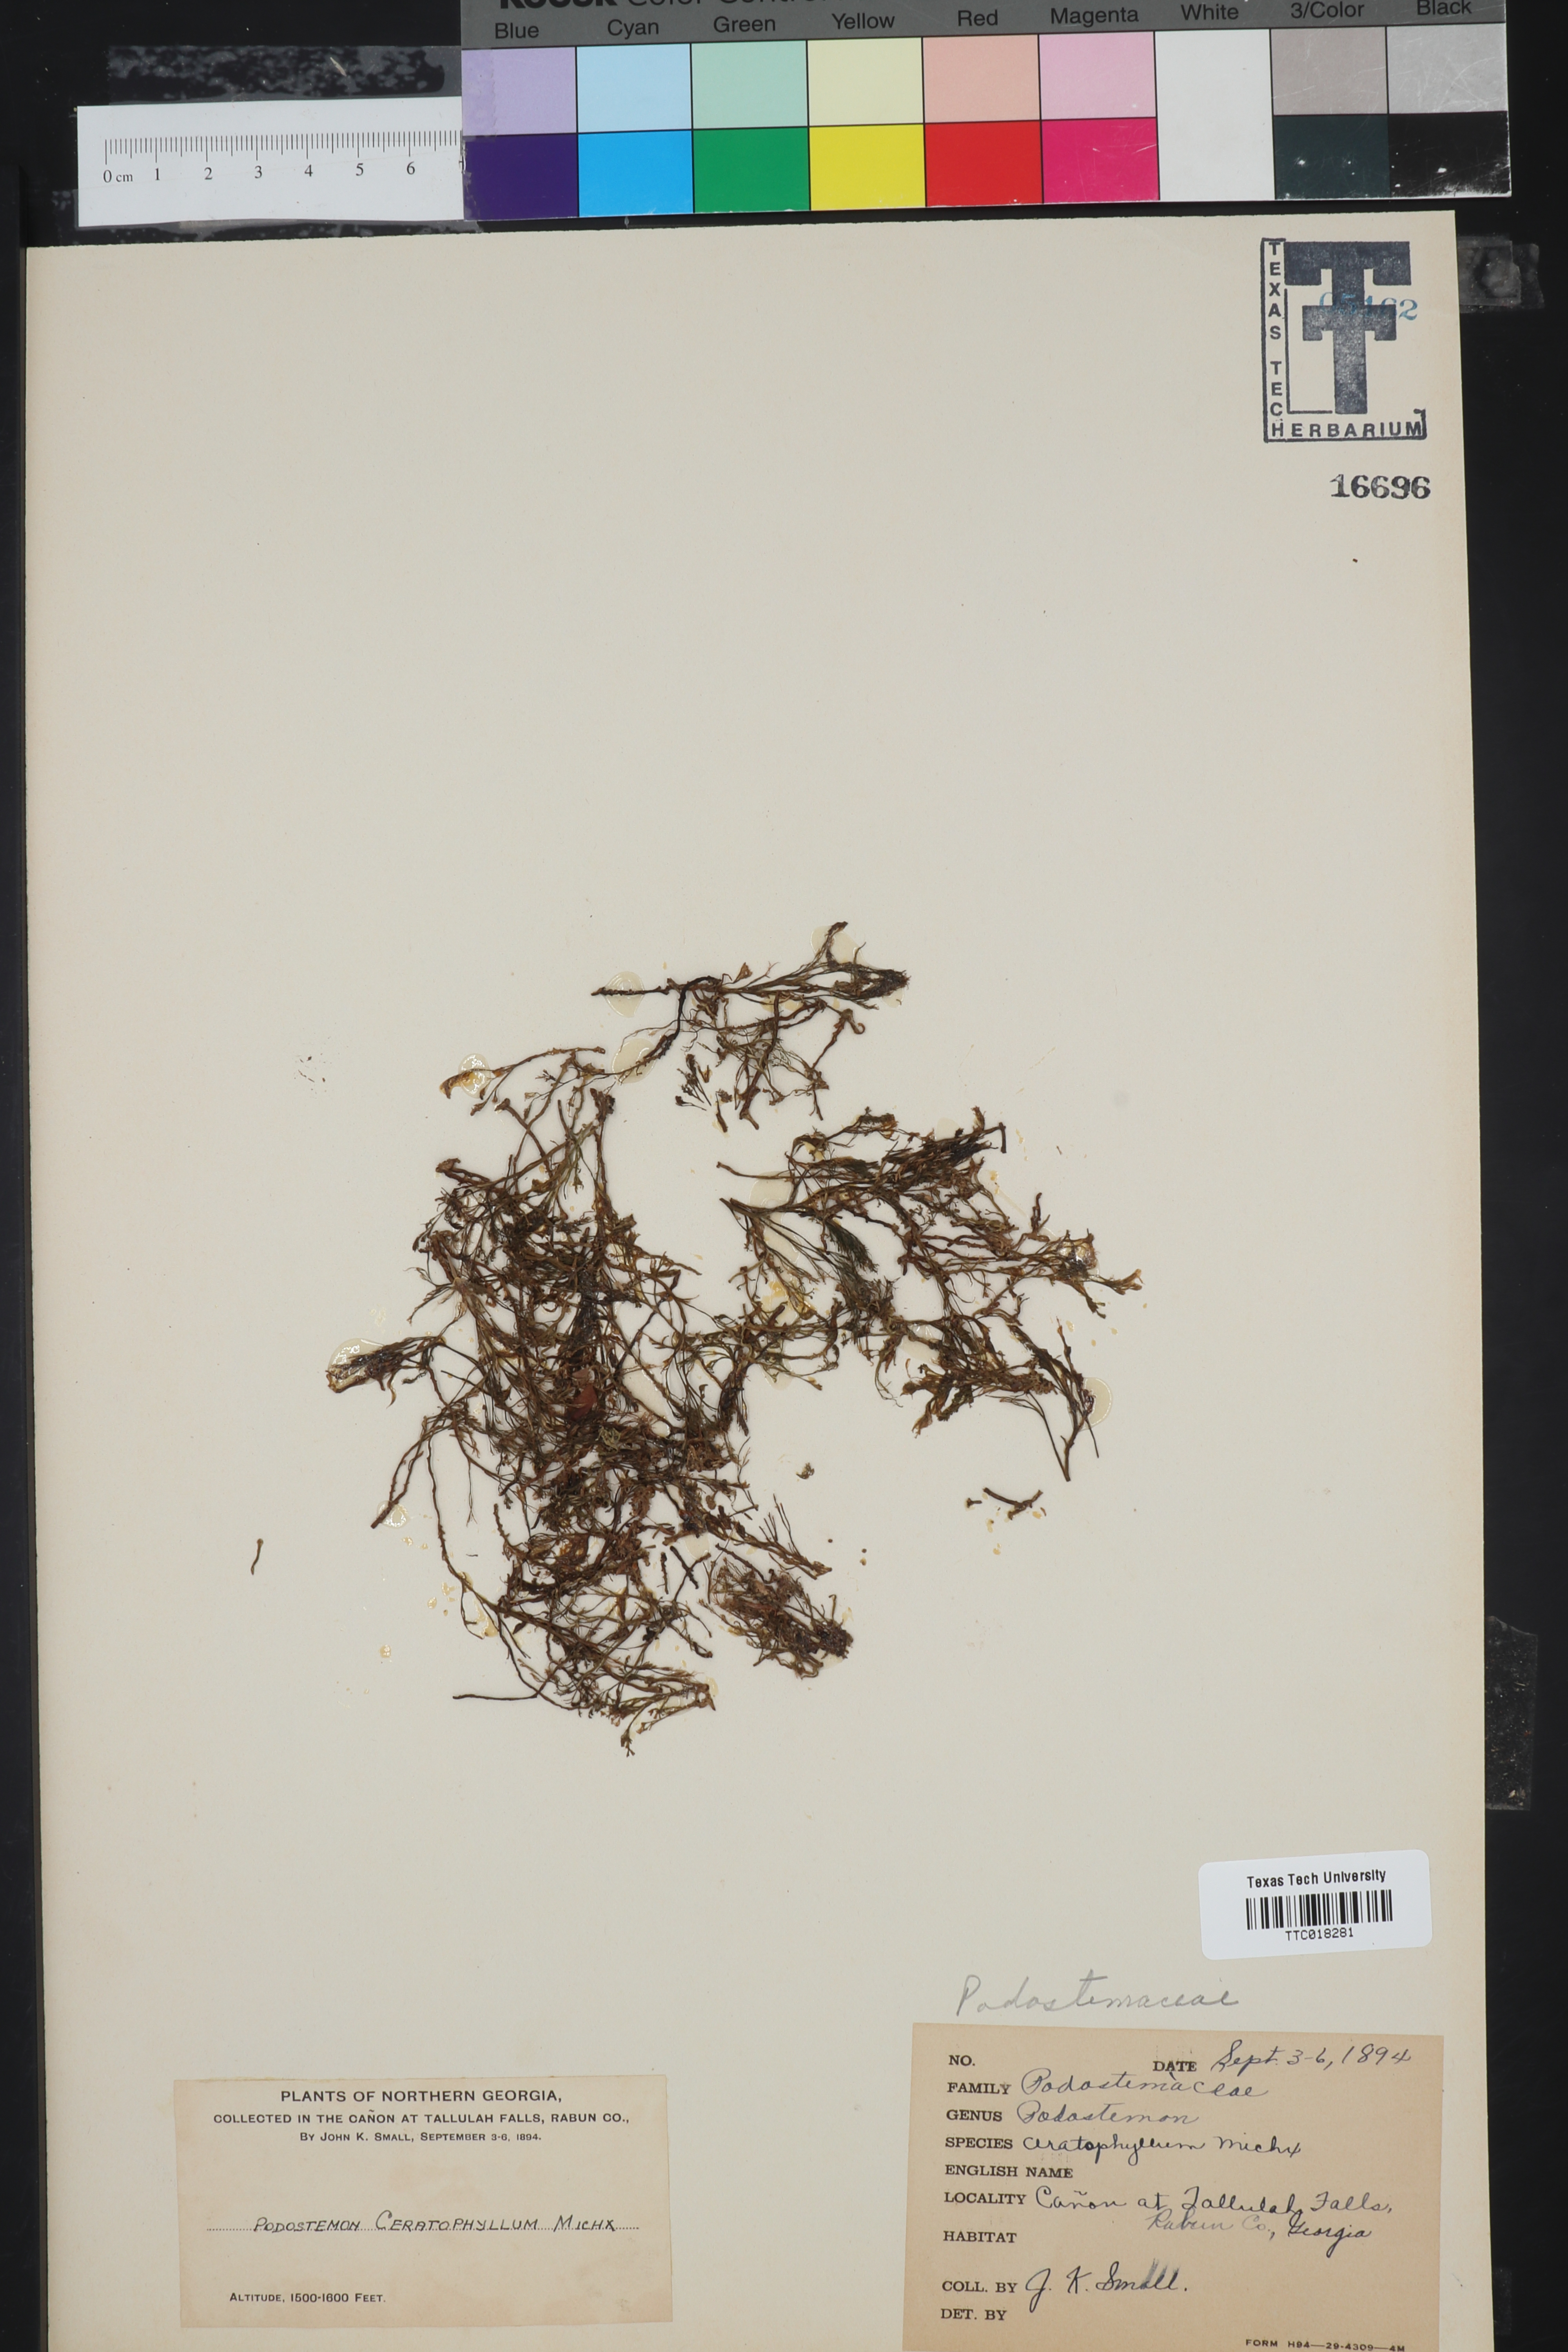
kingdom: Plantae
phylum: Tracheophyta
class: Magnoliopsida
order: Malpighiales
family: Podostemaceae
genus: Podostemum
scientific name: Podostemum ceratophyllum
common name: Horn-leaved riverweed
